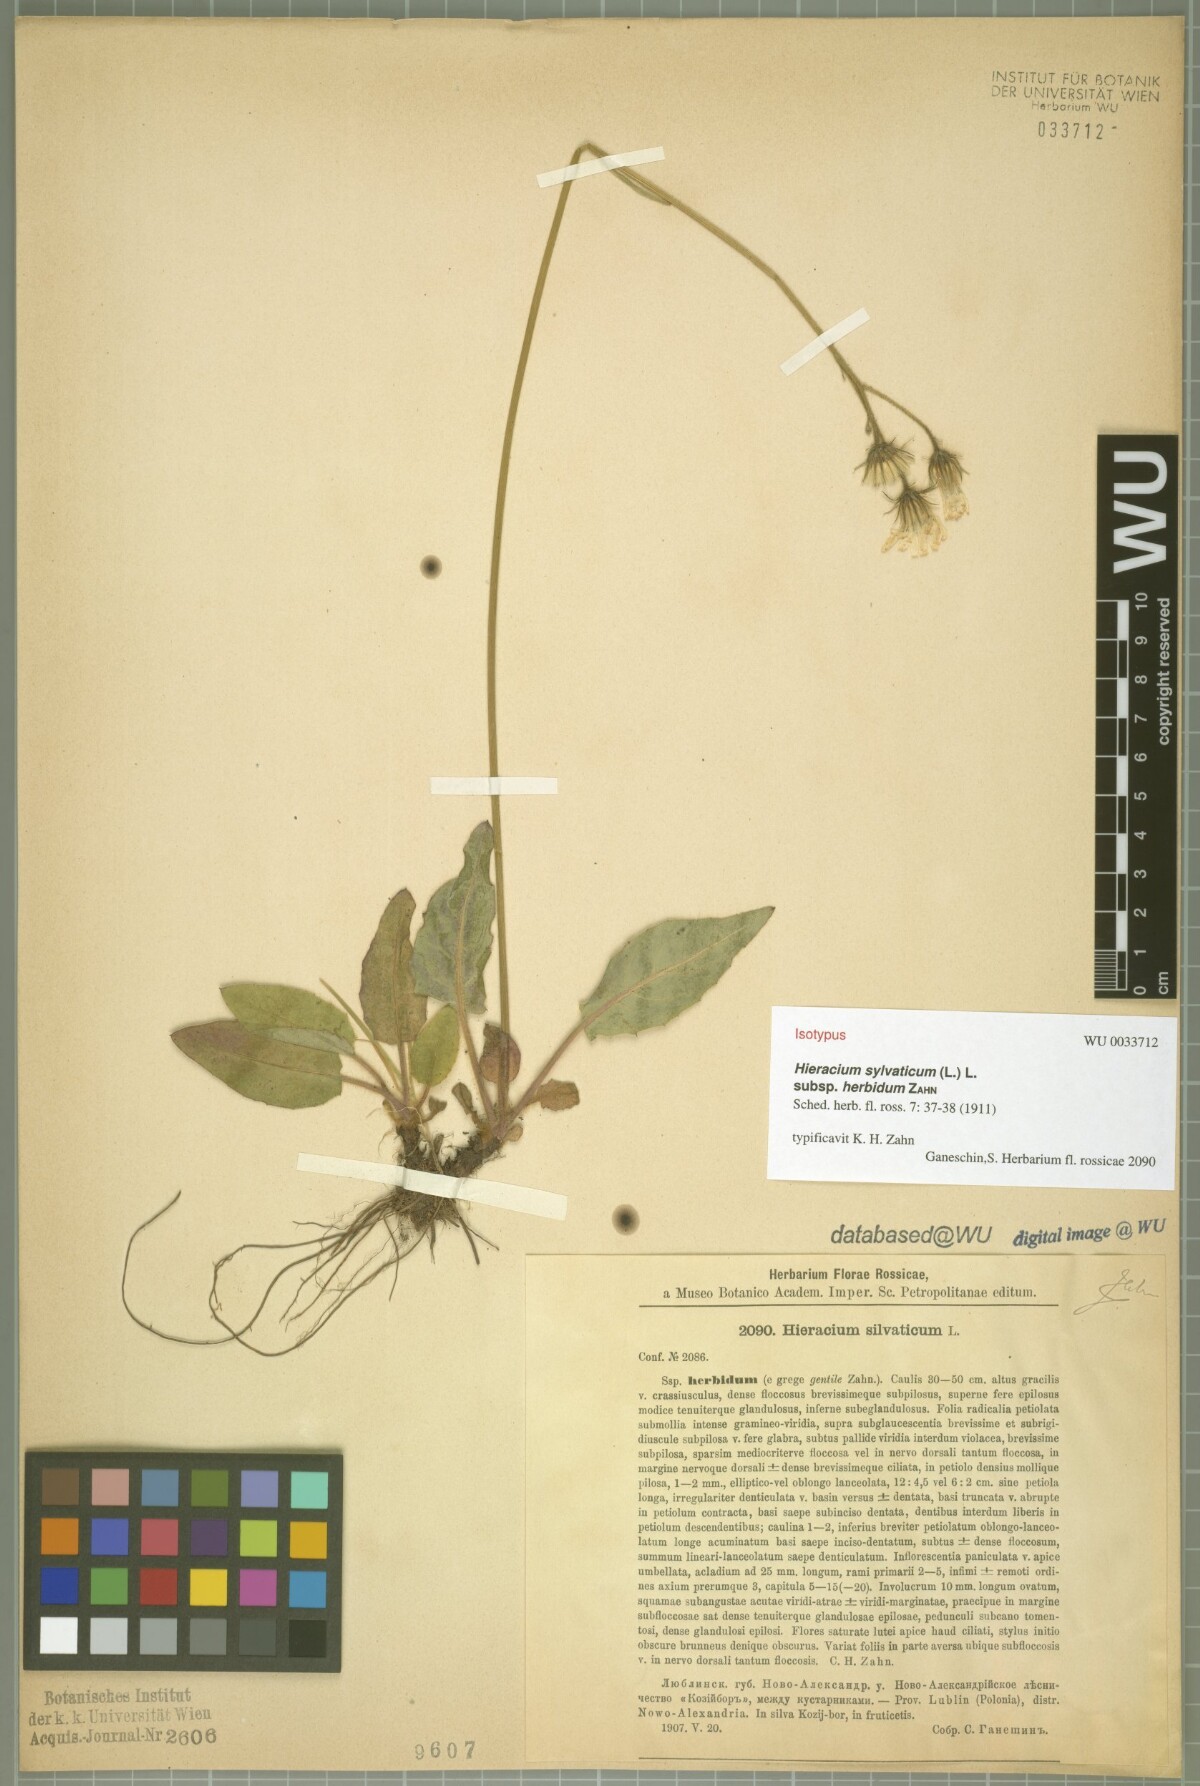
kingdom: Plantae
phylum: Tracheophyta
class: Magnoliopsida
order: Asterales
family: Asteraceae
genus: Hieracium
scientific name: Hieracium sylvaticum
